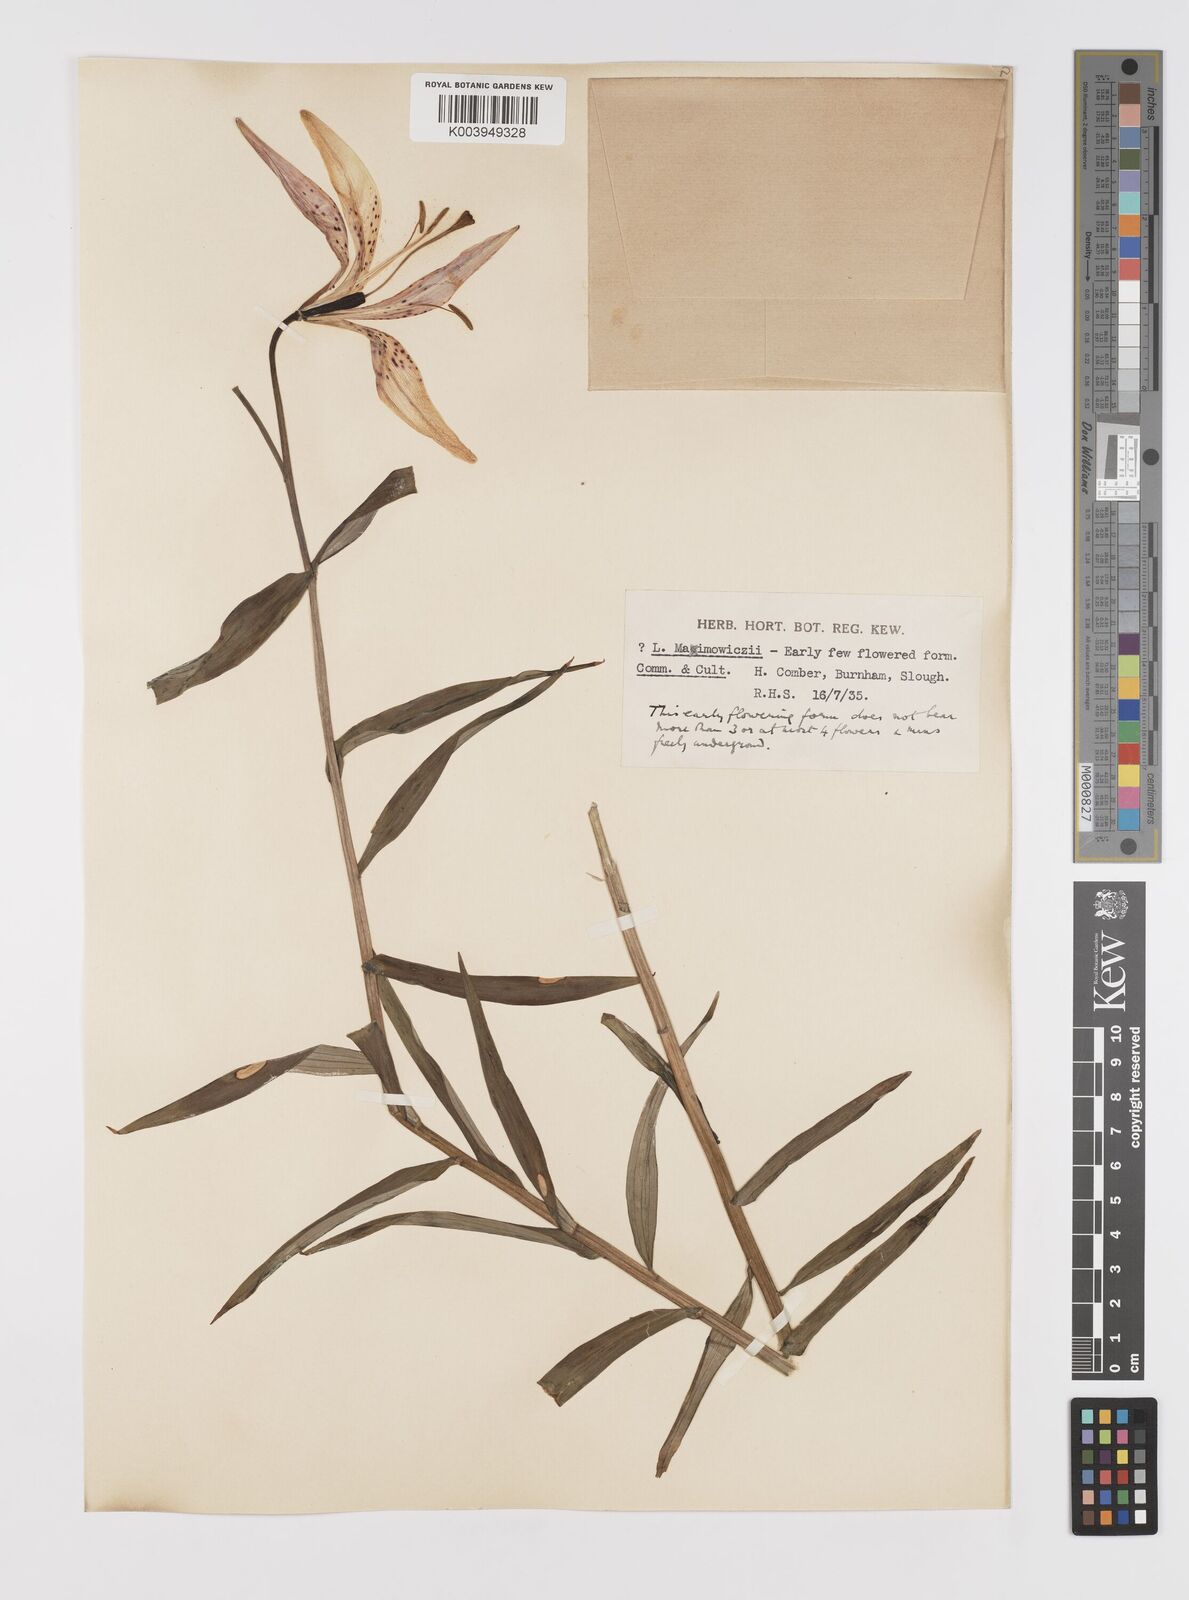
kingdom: Plantae
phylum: Tracheophyta
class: Liliopsida
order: Liliales
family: Liliaceae
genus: Lilium
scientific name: Lilium leichtlinii
